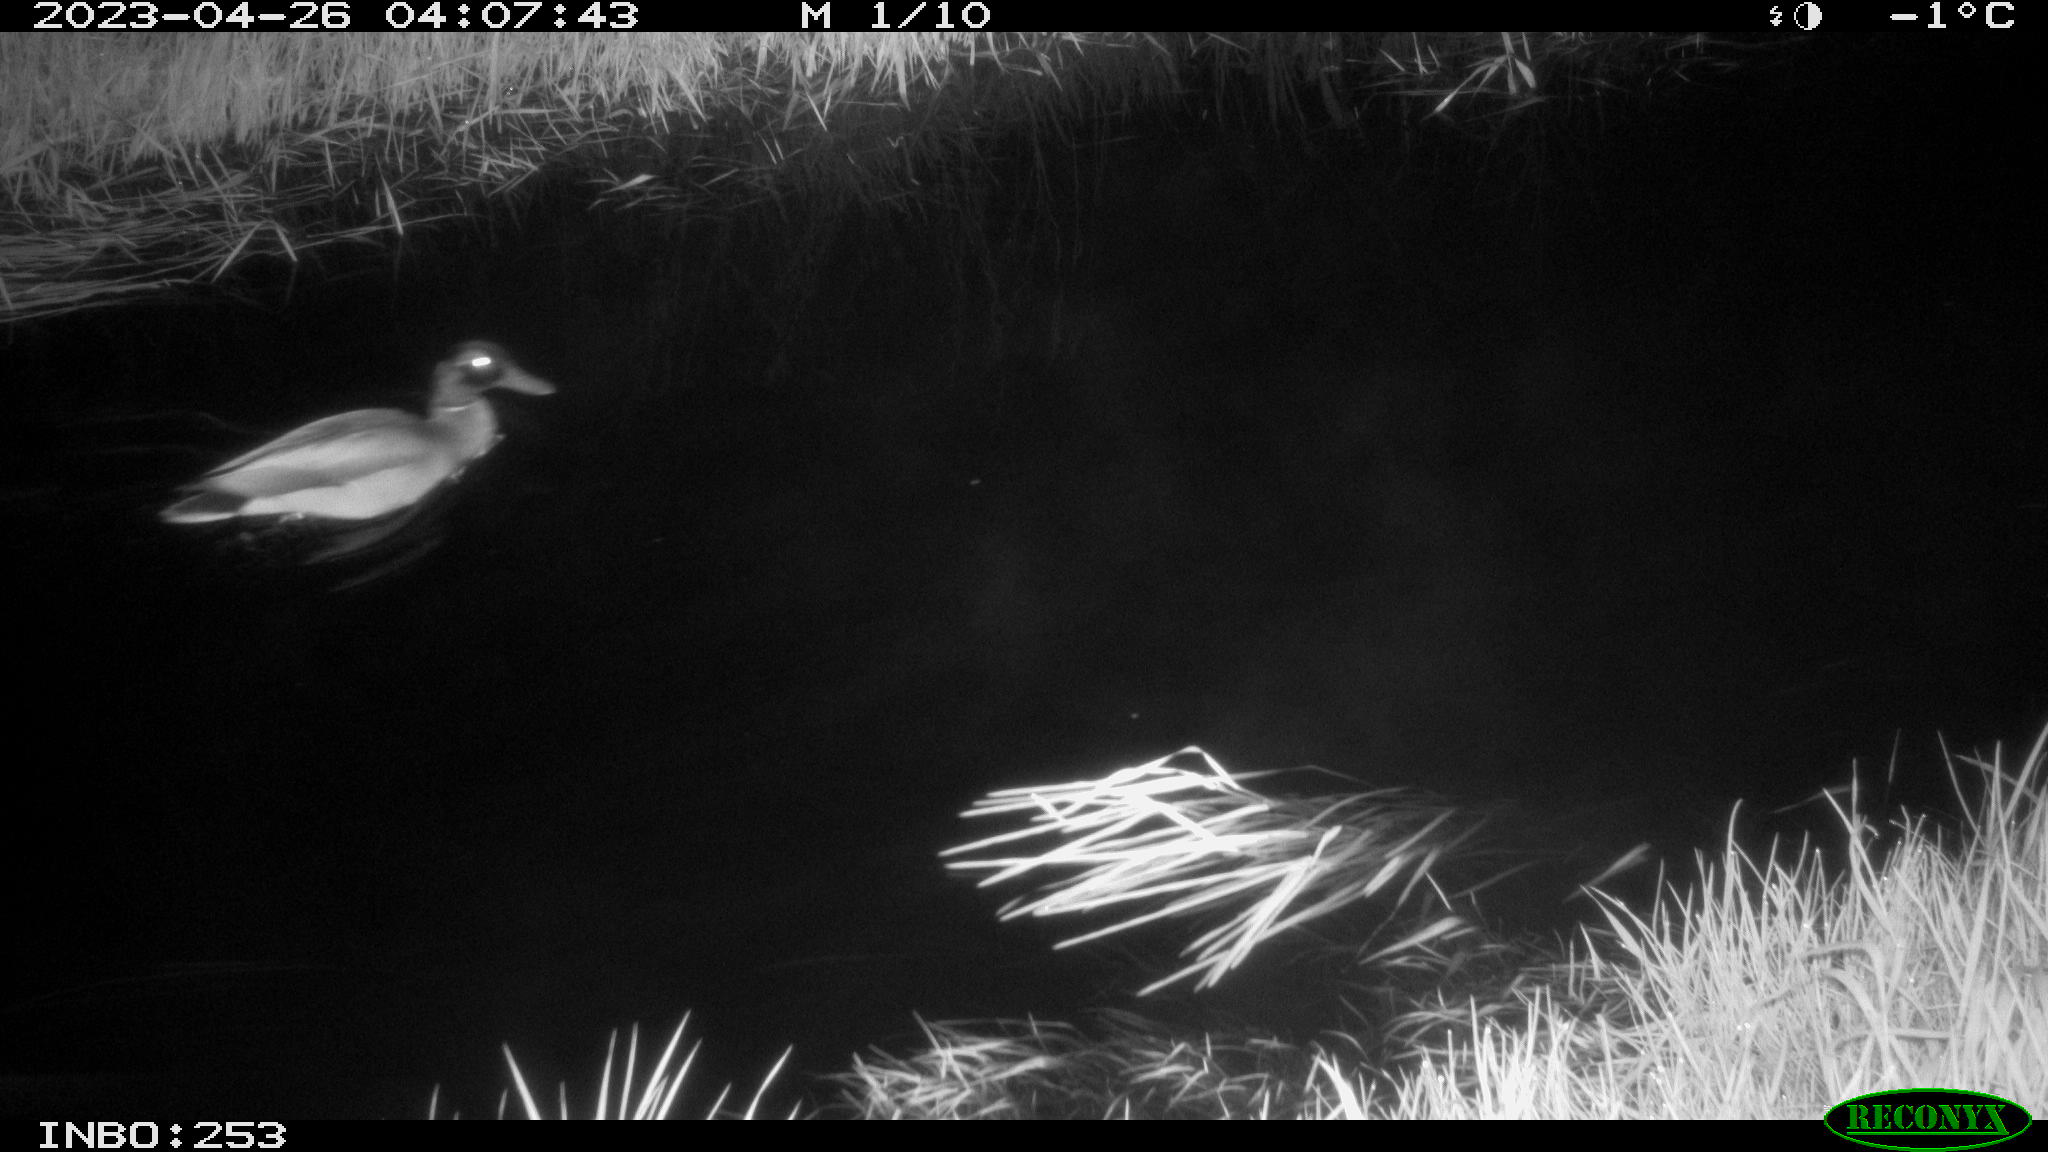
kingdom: Animalia
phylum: Chordata
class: Aves
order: Anseriformes
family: Anatidae
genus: Anas
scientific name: Anas
